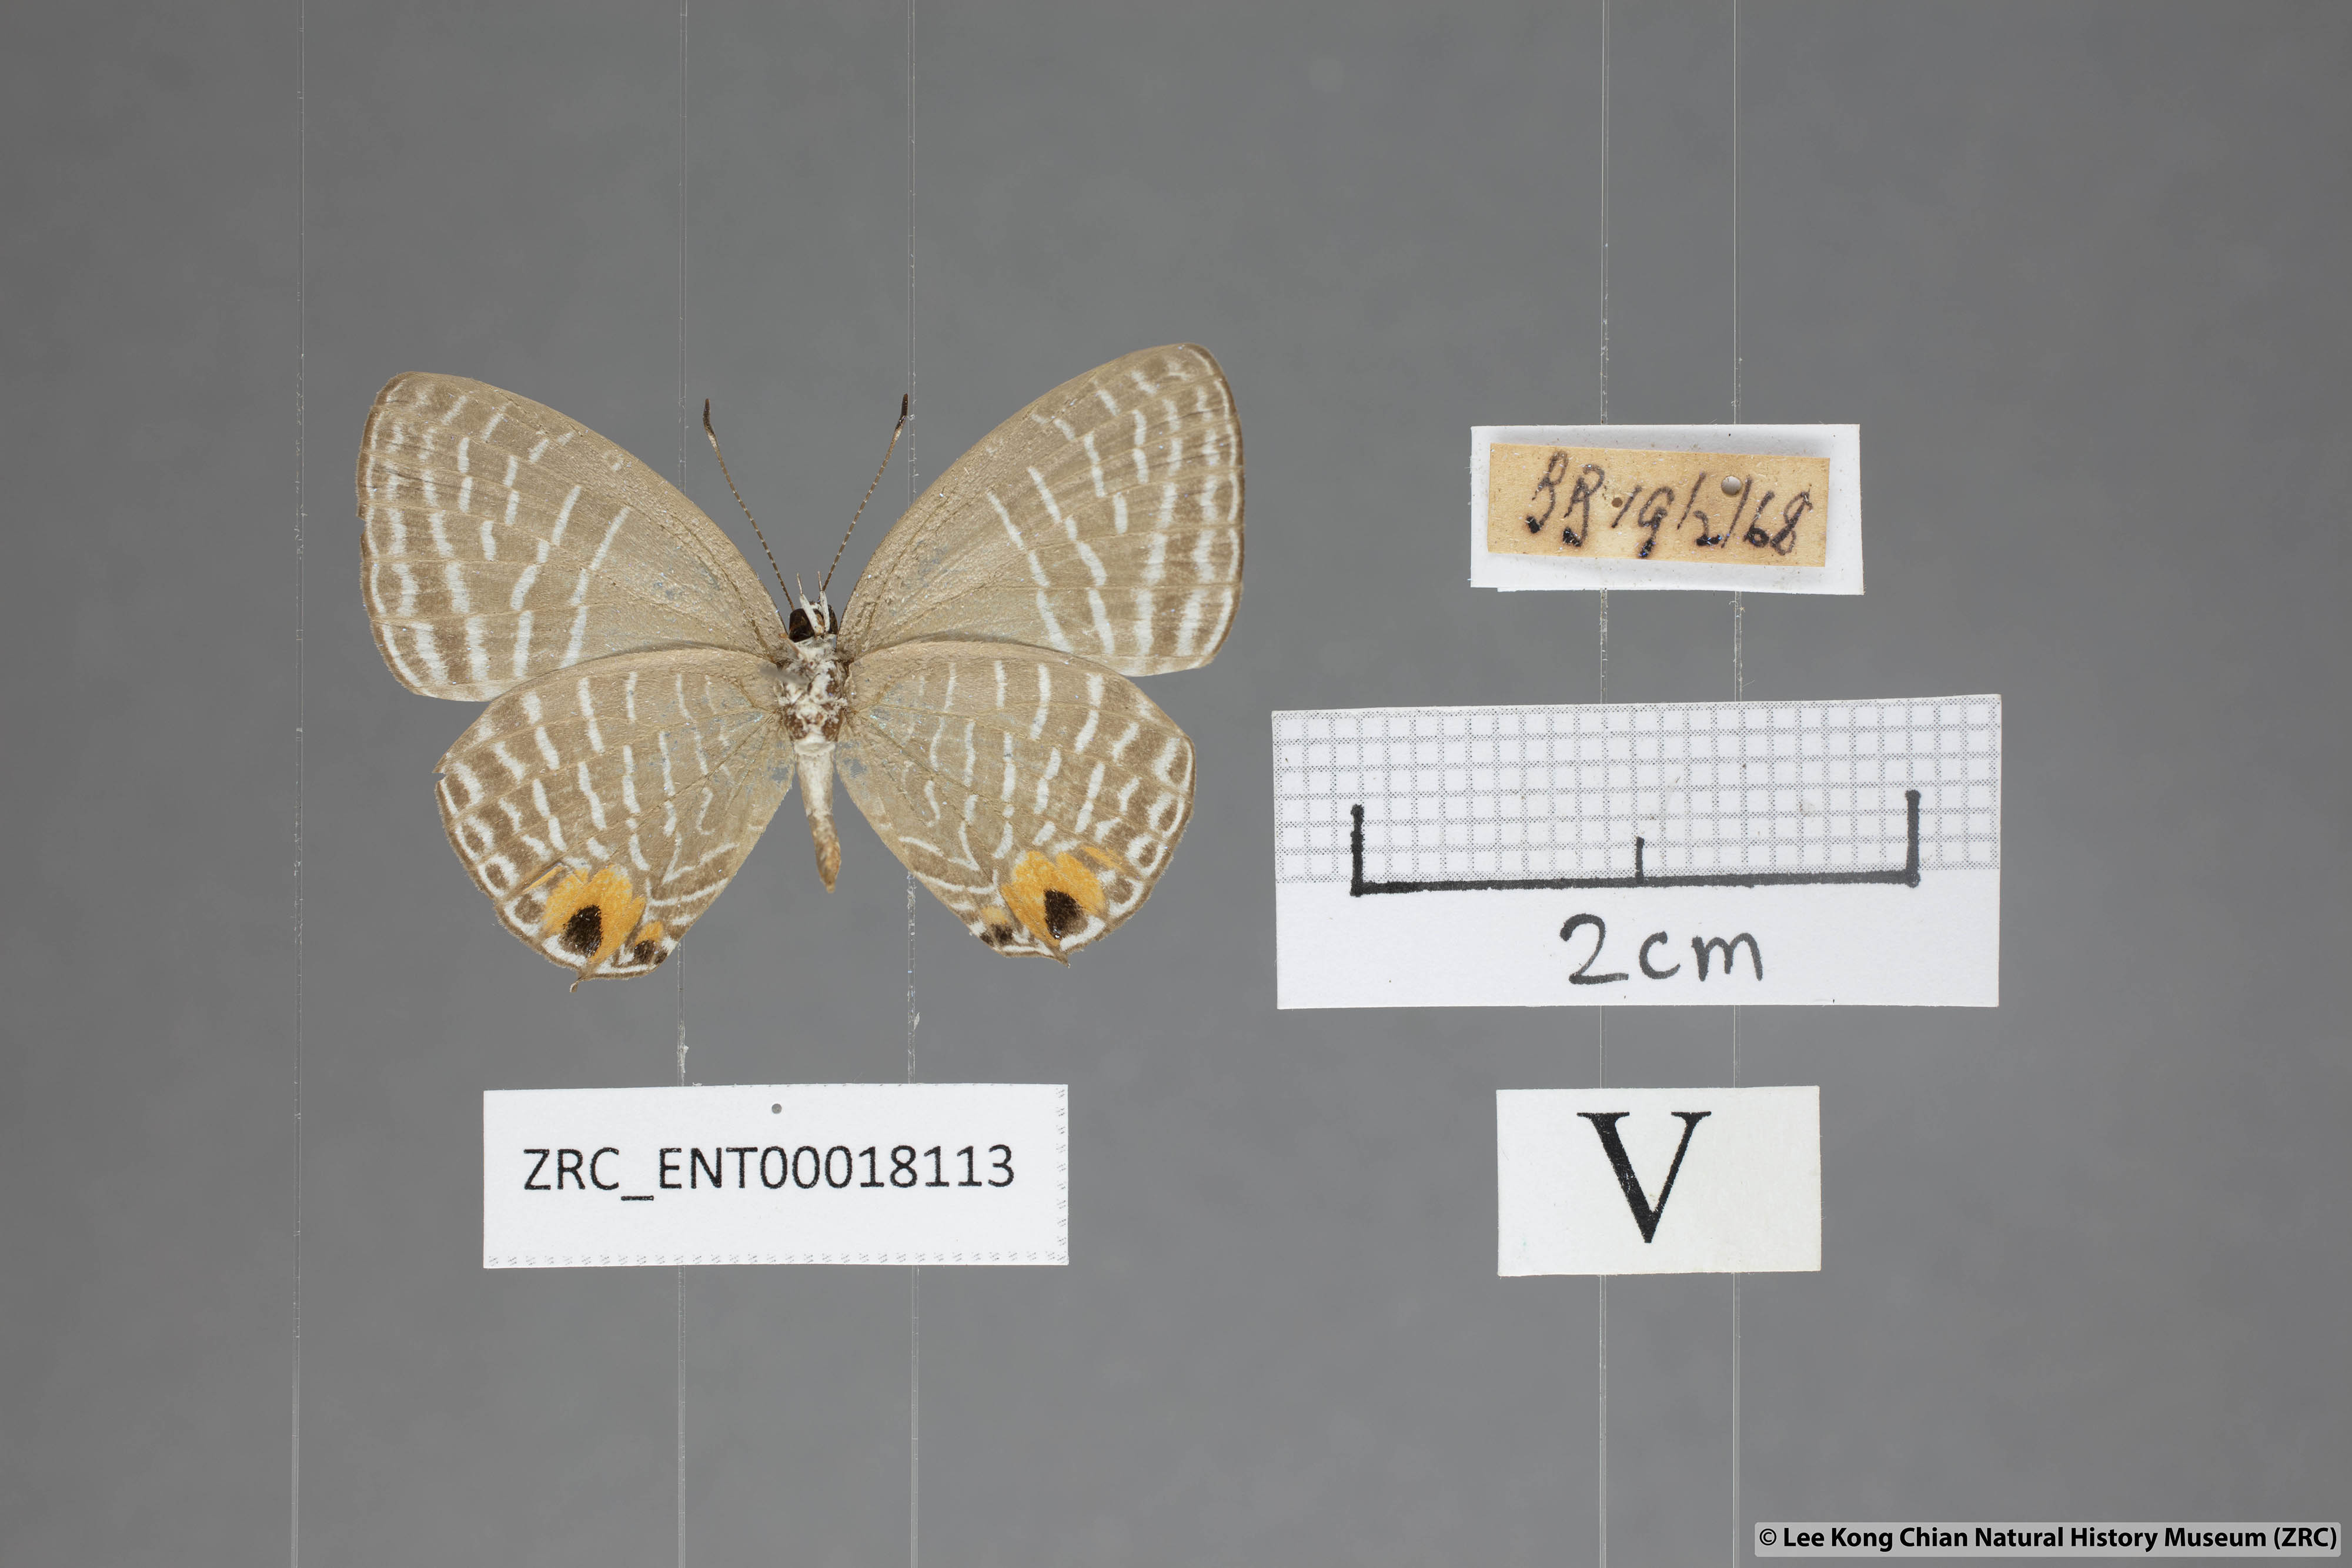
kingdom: Animalia
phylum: Arthropoda
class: Insecta
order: Lepidoptera
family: Lycaenidae
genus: Jamides
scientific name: Jamides
